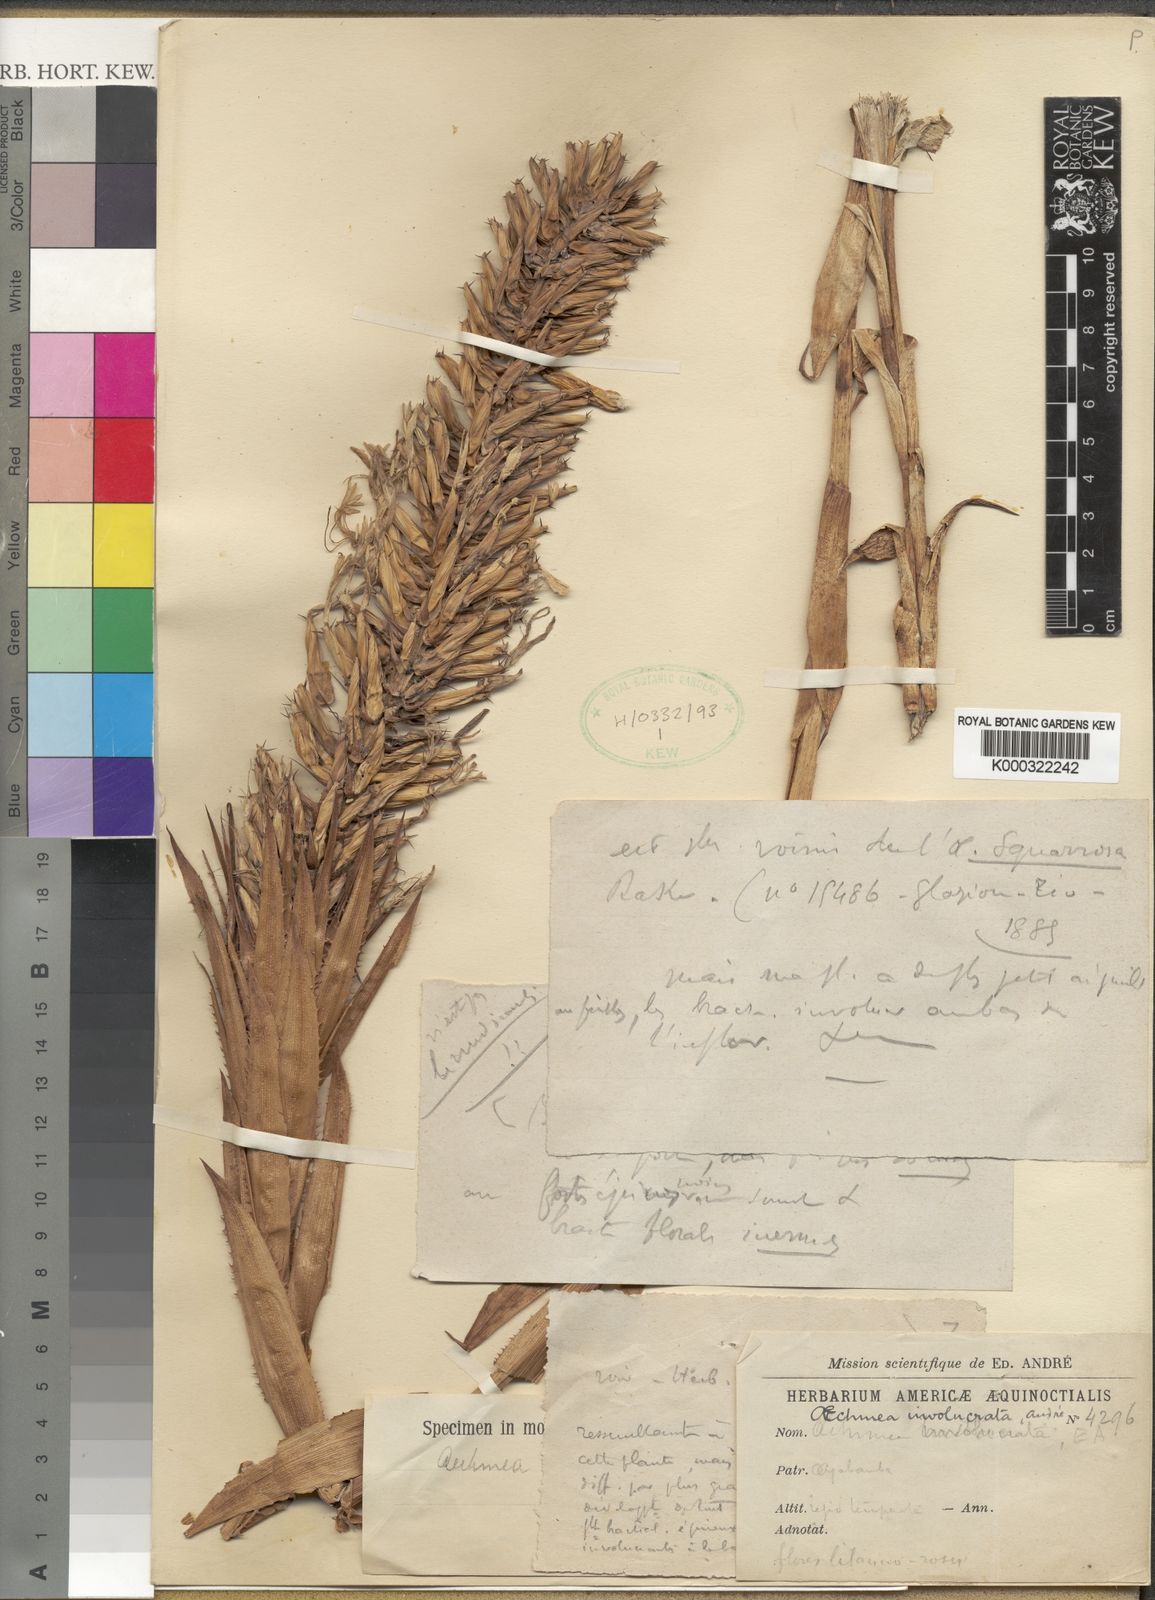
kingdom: Plantae
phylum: Tracheophyta
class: Liliopsida
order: Poales
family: Bromeliaceae
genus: Aechmea
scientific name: Aechmea
